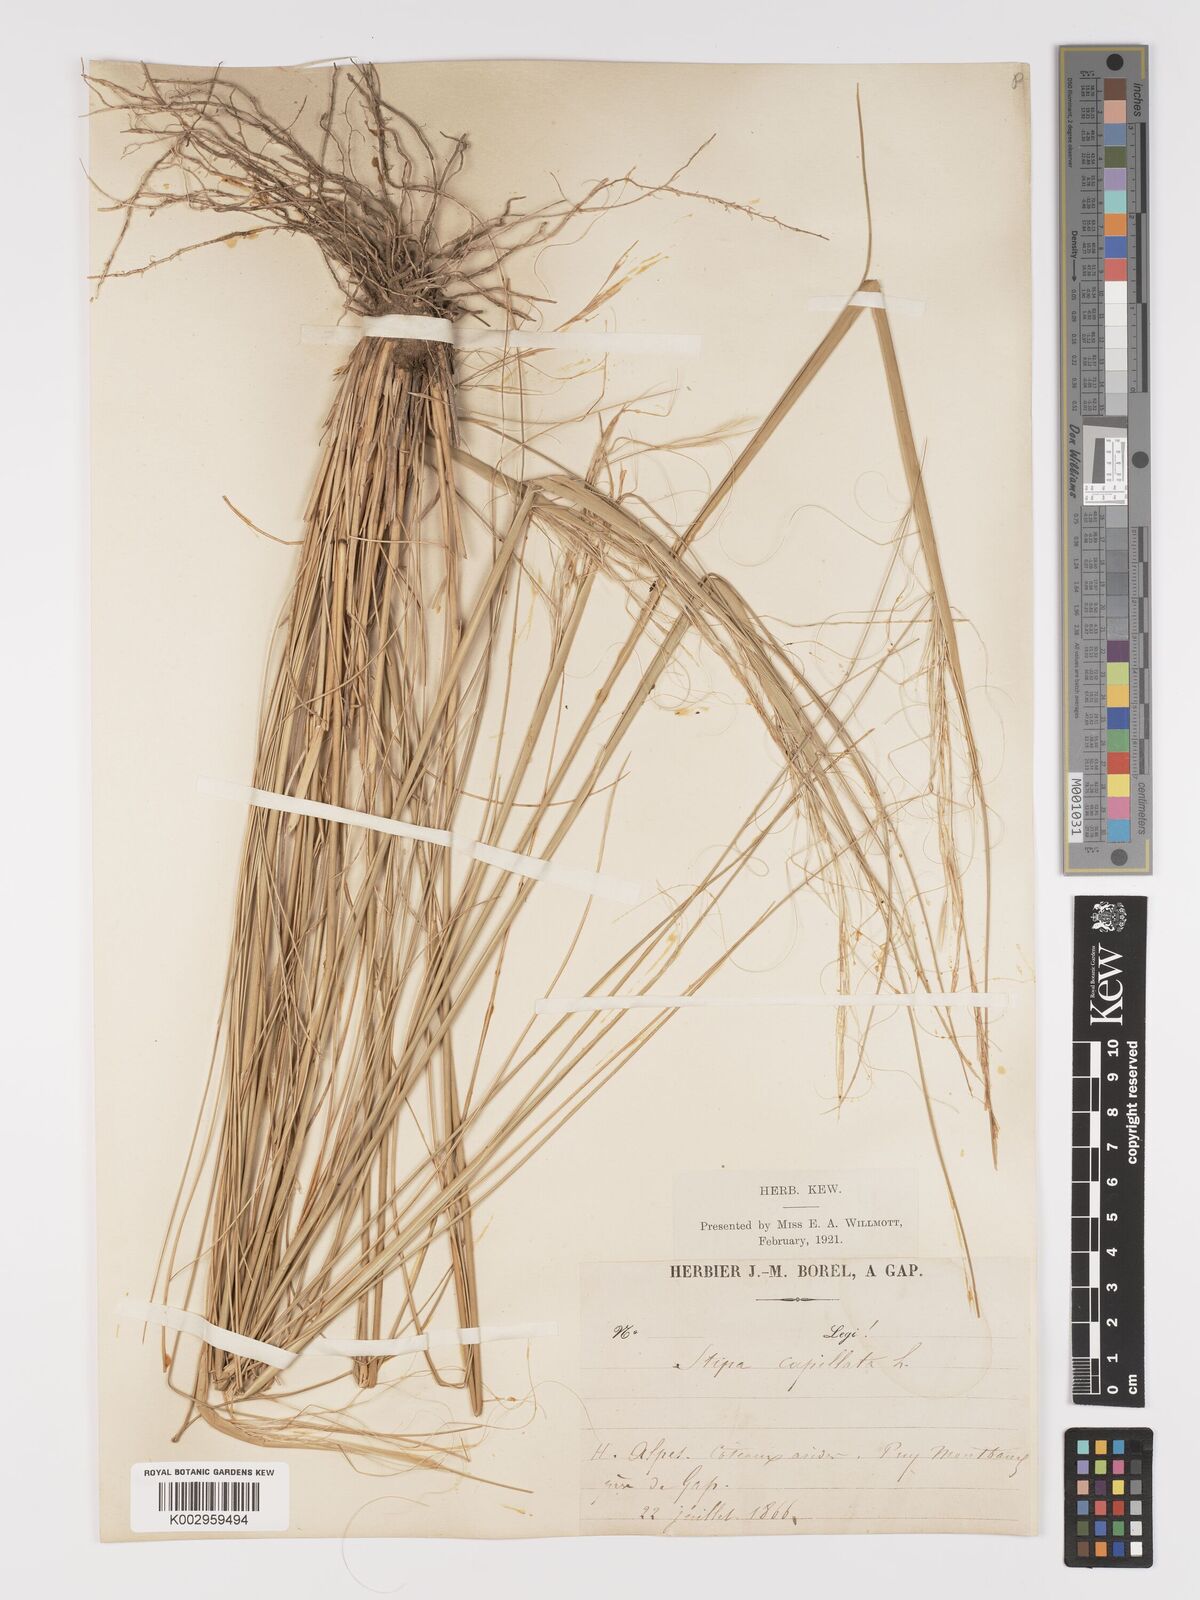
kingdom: Plantae
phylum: Tracheophyta
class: Liliopsida
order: Poales
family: Poaceae
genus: Stipa
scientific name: Stipa capillata
